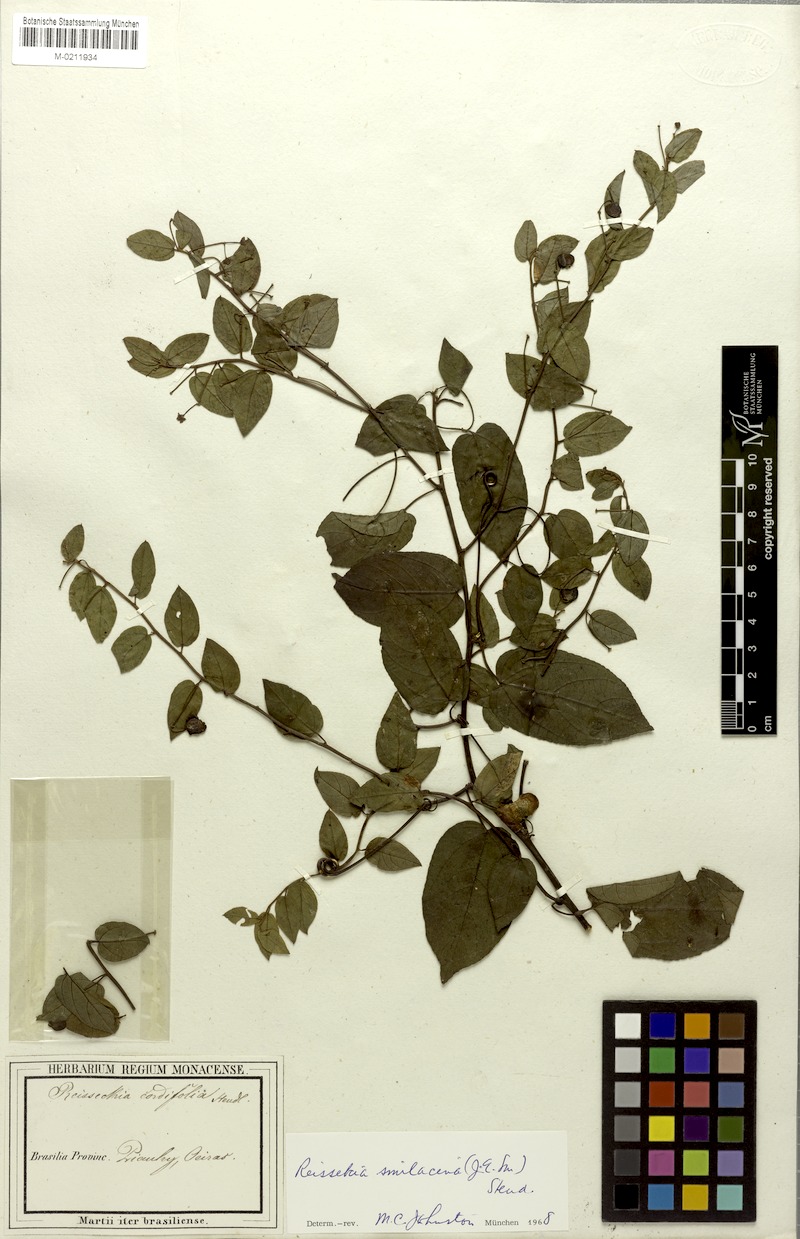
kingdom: Plantae
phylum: Tracheophyta
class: Magnoliopsida
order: Rosales
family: Rhamnaceae
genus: Reissekia
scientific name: Reissekia smilacina
